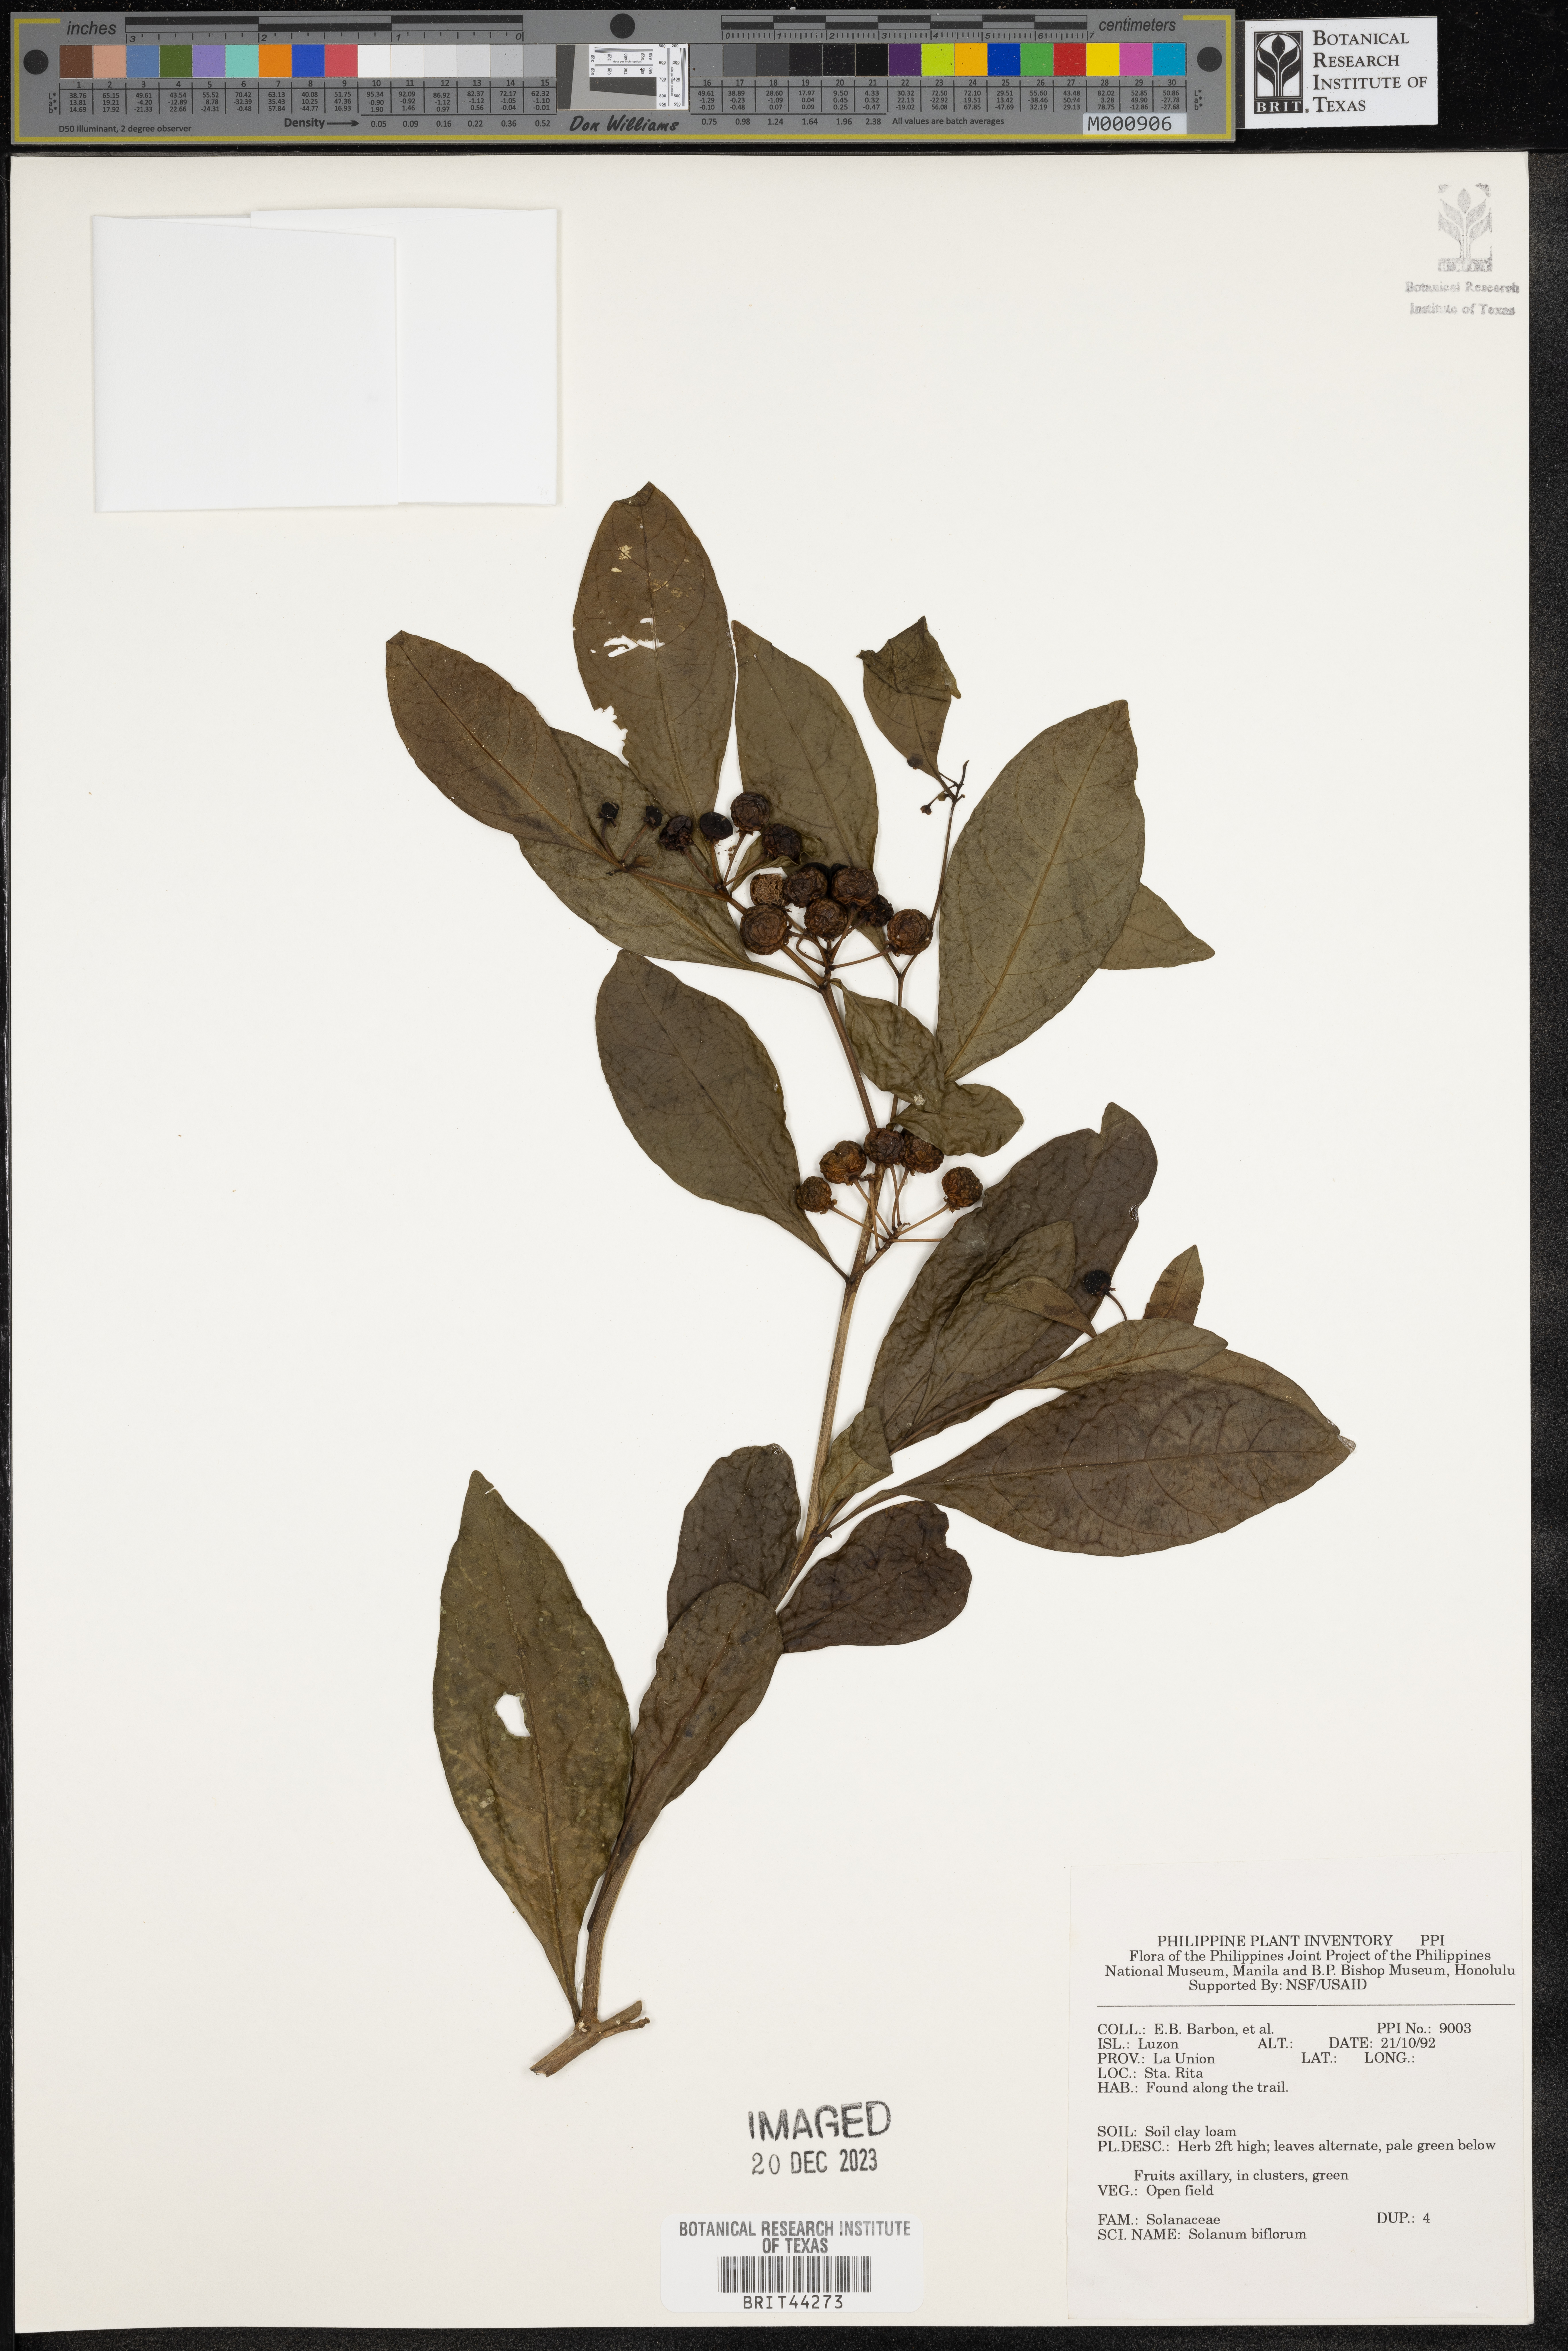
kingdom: Plantae
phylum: Tracheophyta
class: Magnoliopsida
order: Solanales
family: Solanaceae
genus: Lycianthes
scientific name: Lycianthes biflora
